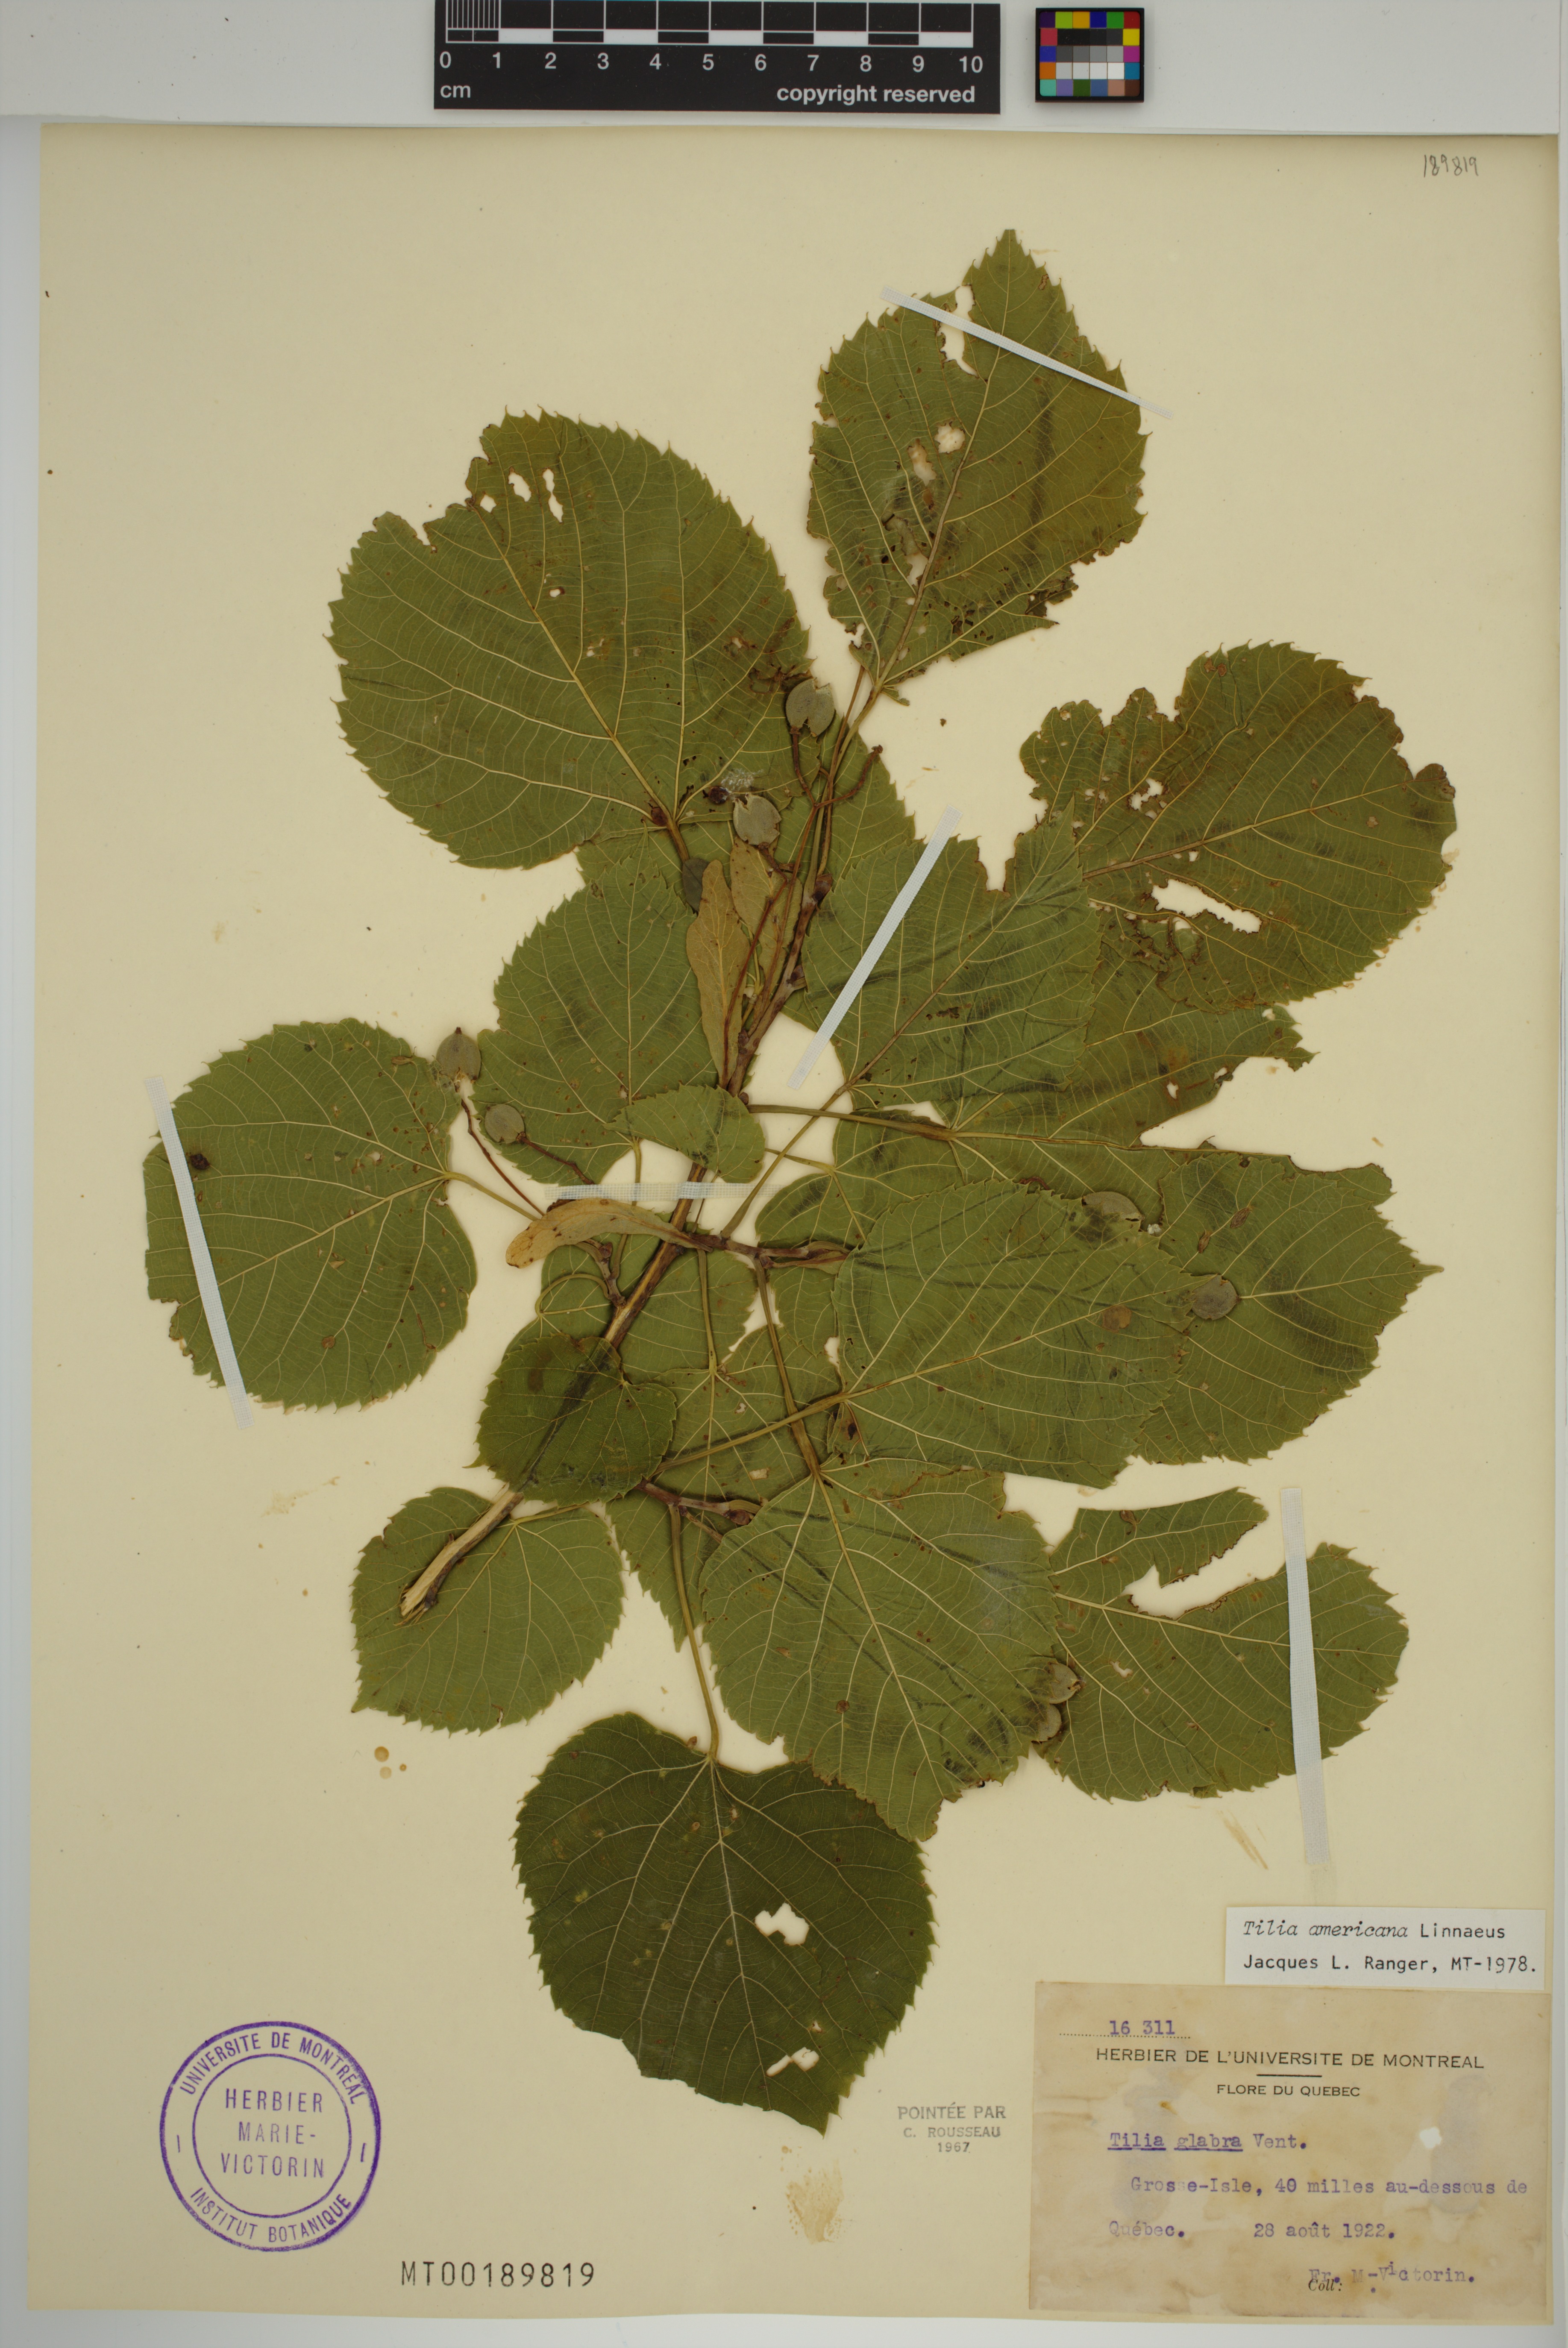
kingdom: Plantae
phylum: Tracheophyta
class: Magnoliopsida
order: Malvales
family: Malvaceae
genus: Tilia
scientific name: Tilia americana
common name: Basswood
